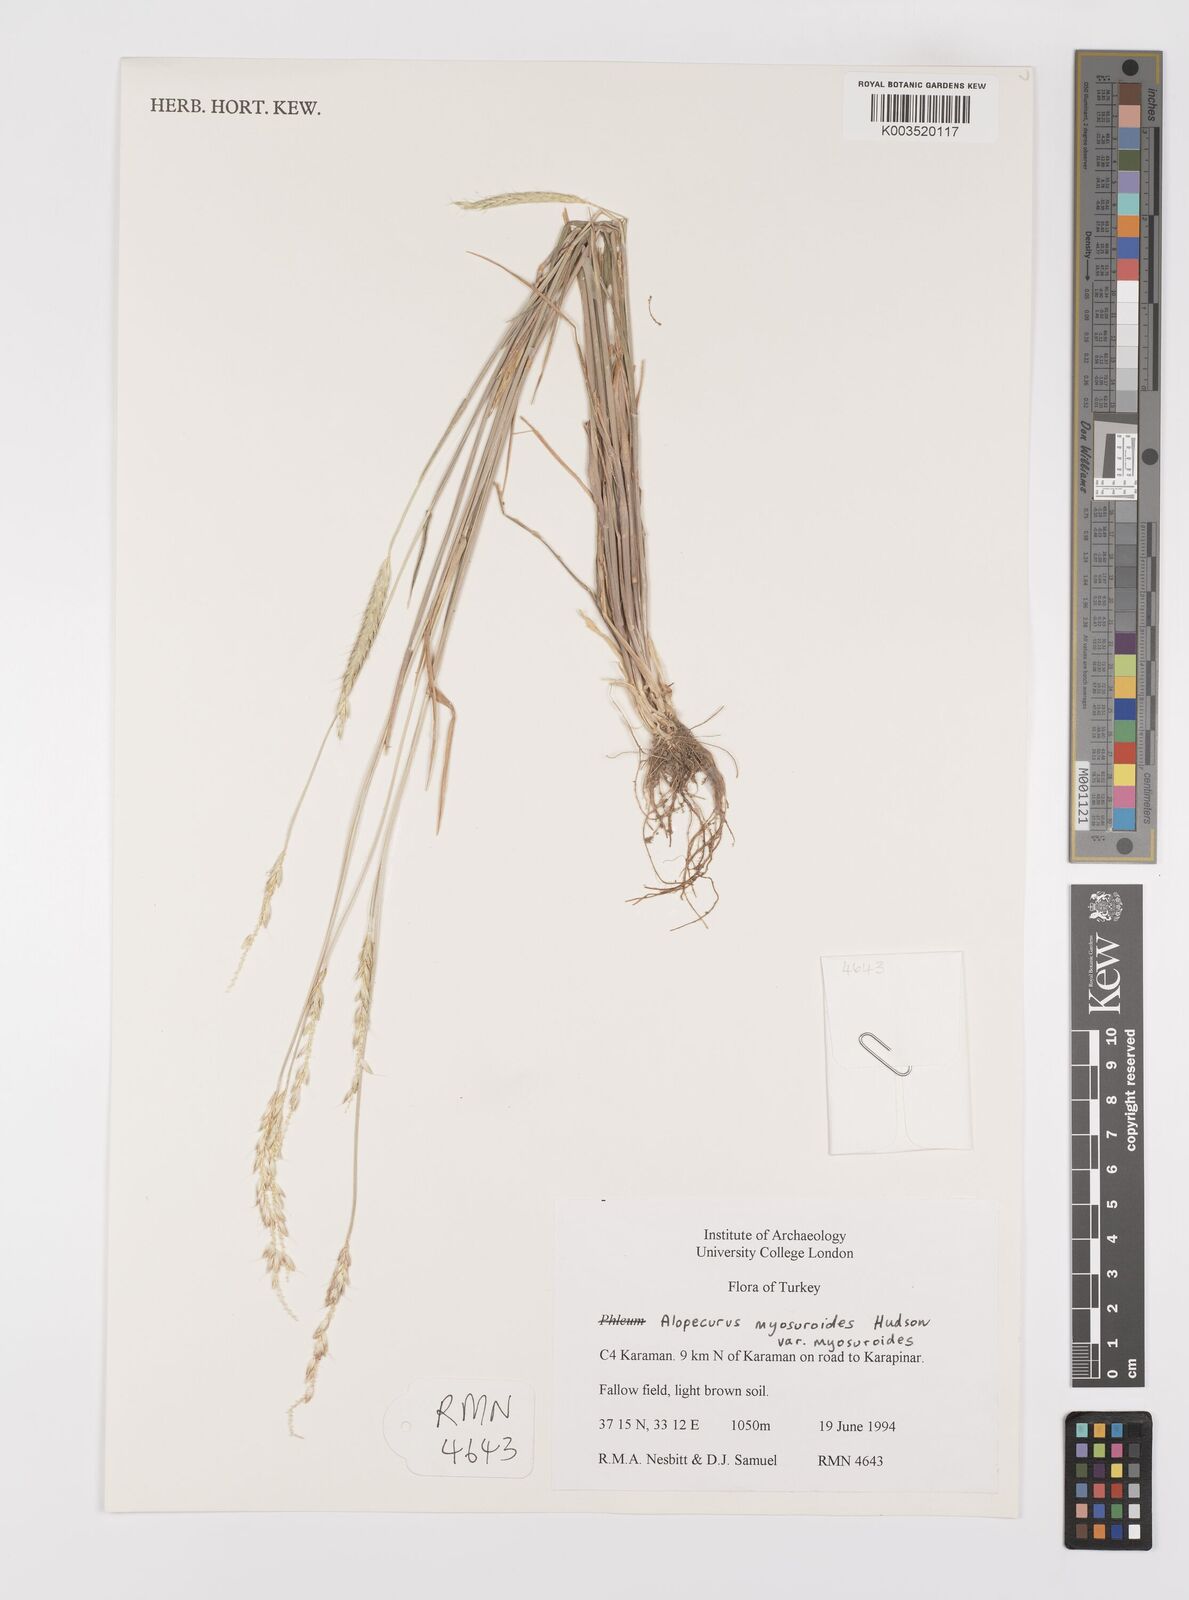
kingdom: Plantae
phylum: Tracheophyta
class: Liliopsida
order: Poales
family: Poaceae
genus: Alopecurus
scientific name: Alopecurus myosuroides
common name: Black-grass
